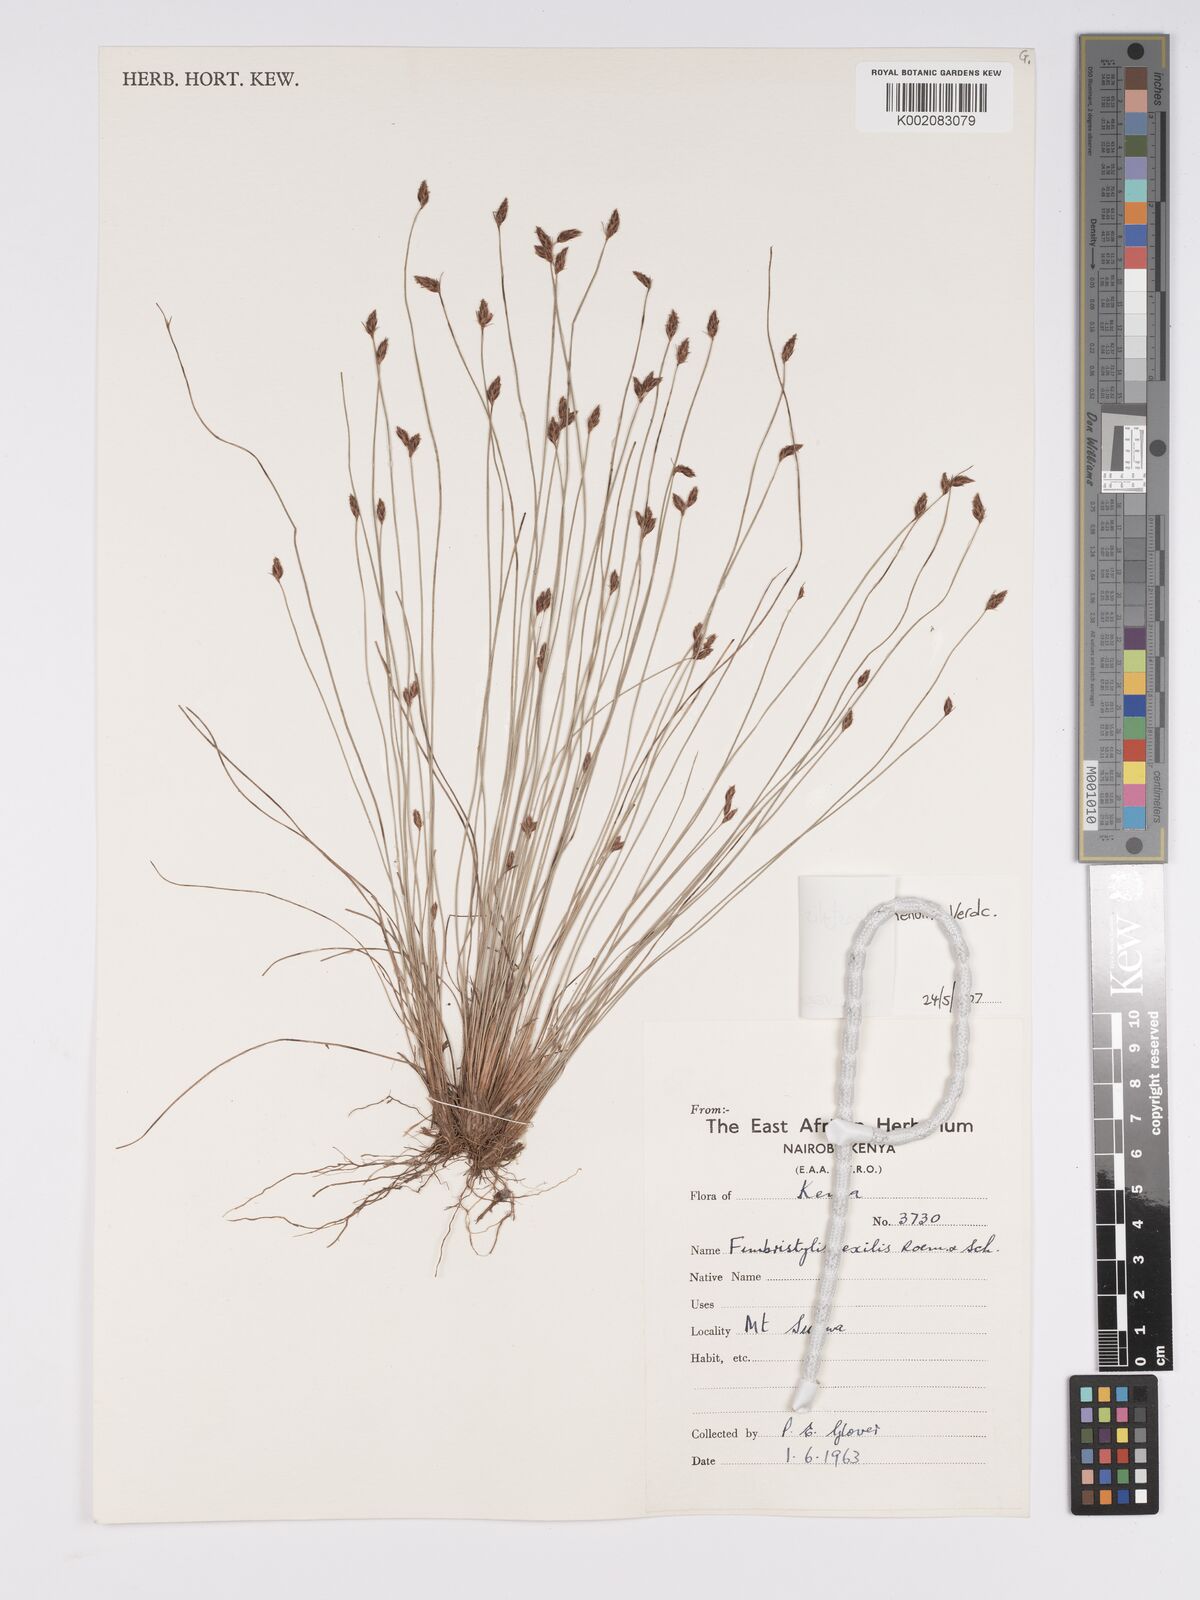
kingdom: Plantae
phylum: Tracheophyta
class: Liliopsida
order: Poales
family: Cyperaceae
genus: Bulbostylis
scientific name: Bulbostylis mlangoyajehenum
